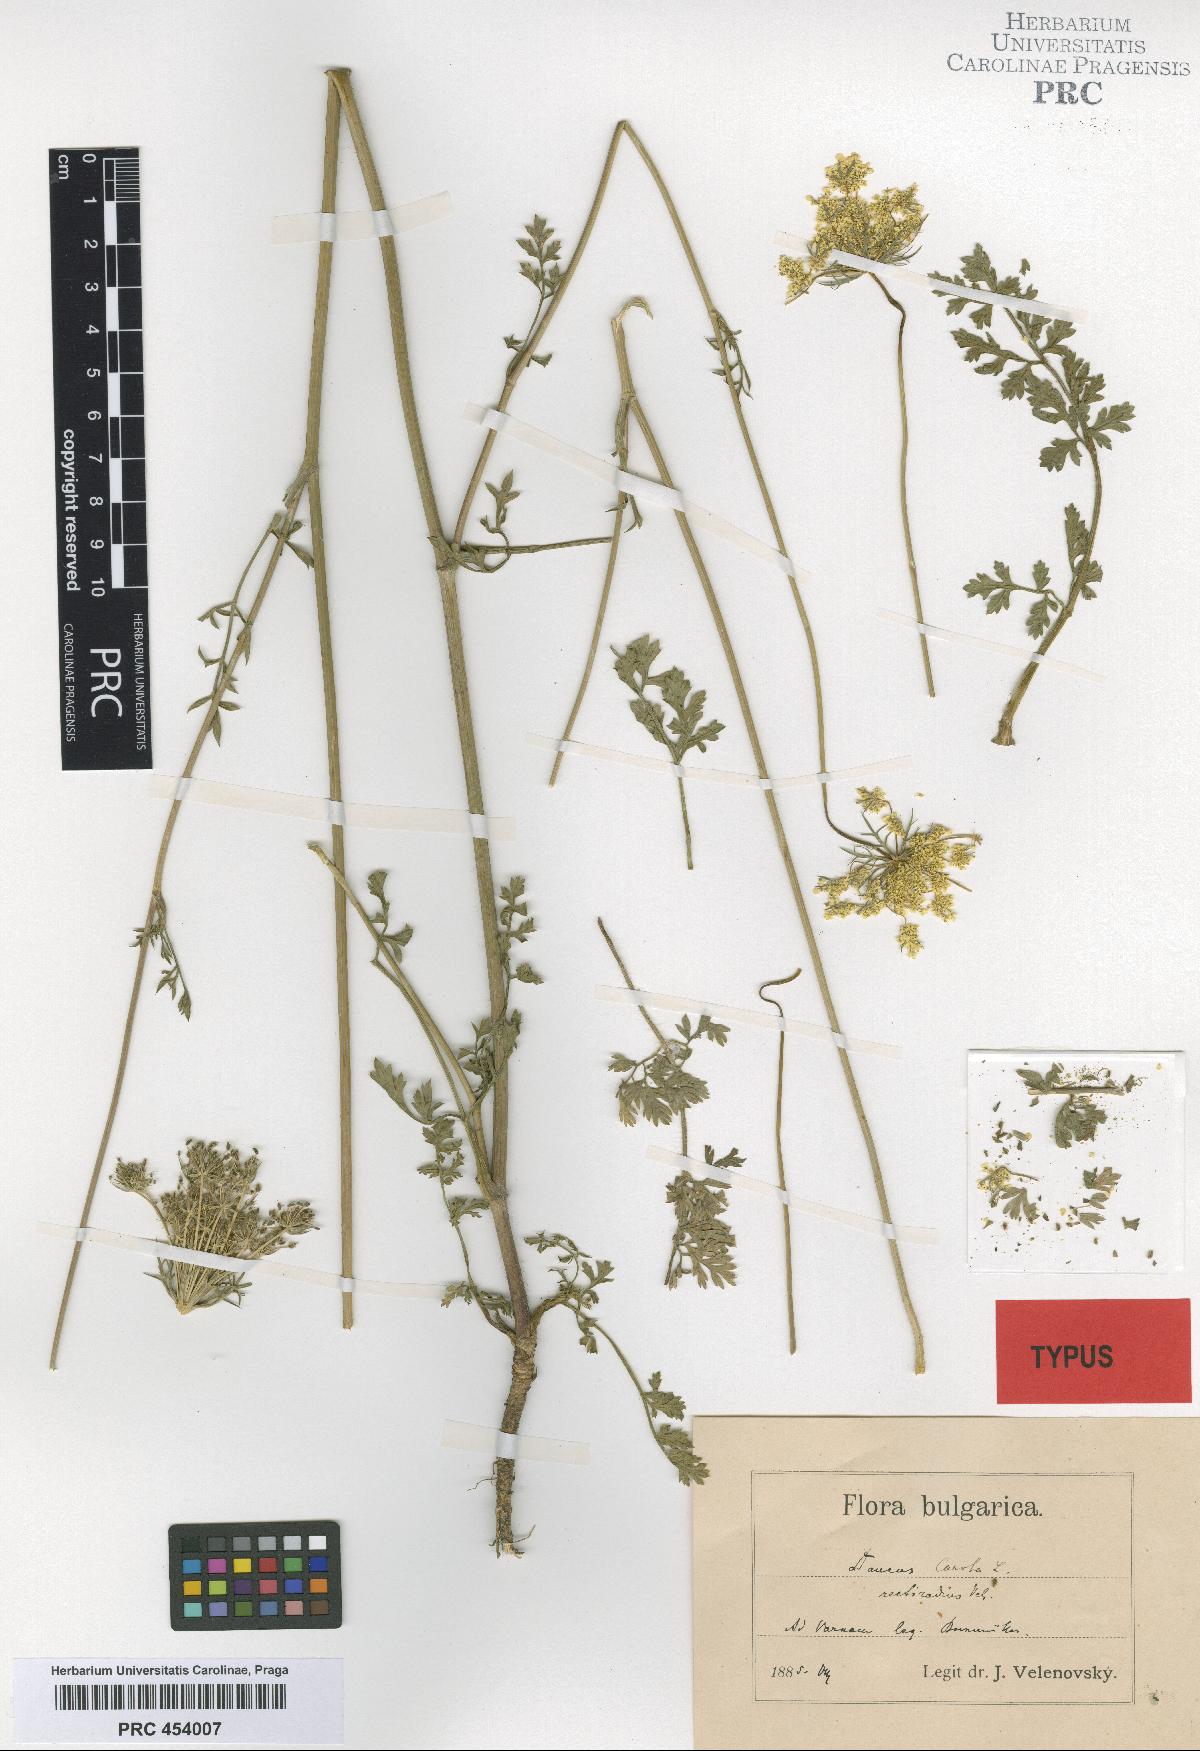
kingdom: Plantae
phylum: Tracheophyta
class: Magnoliopsida
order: Apiales
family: Apiaceae
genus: Daucus
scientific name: Daucus carota
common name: Wild carrot
